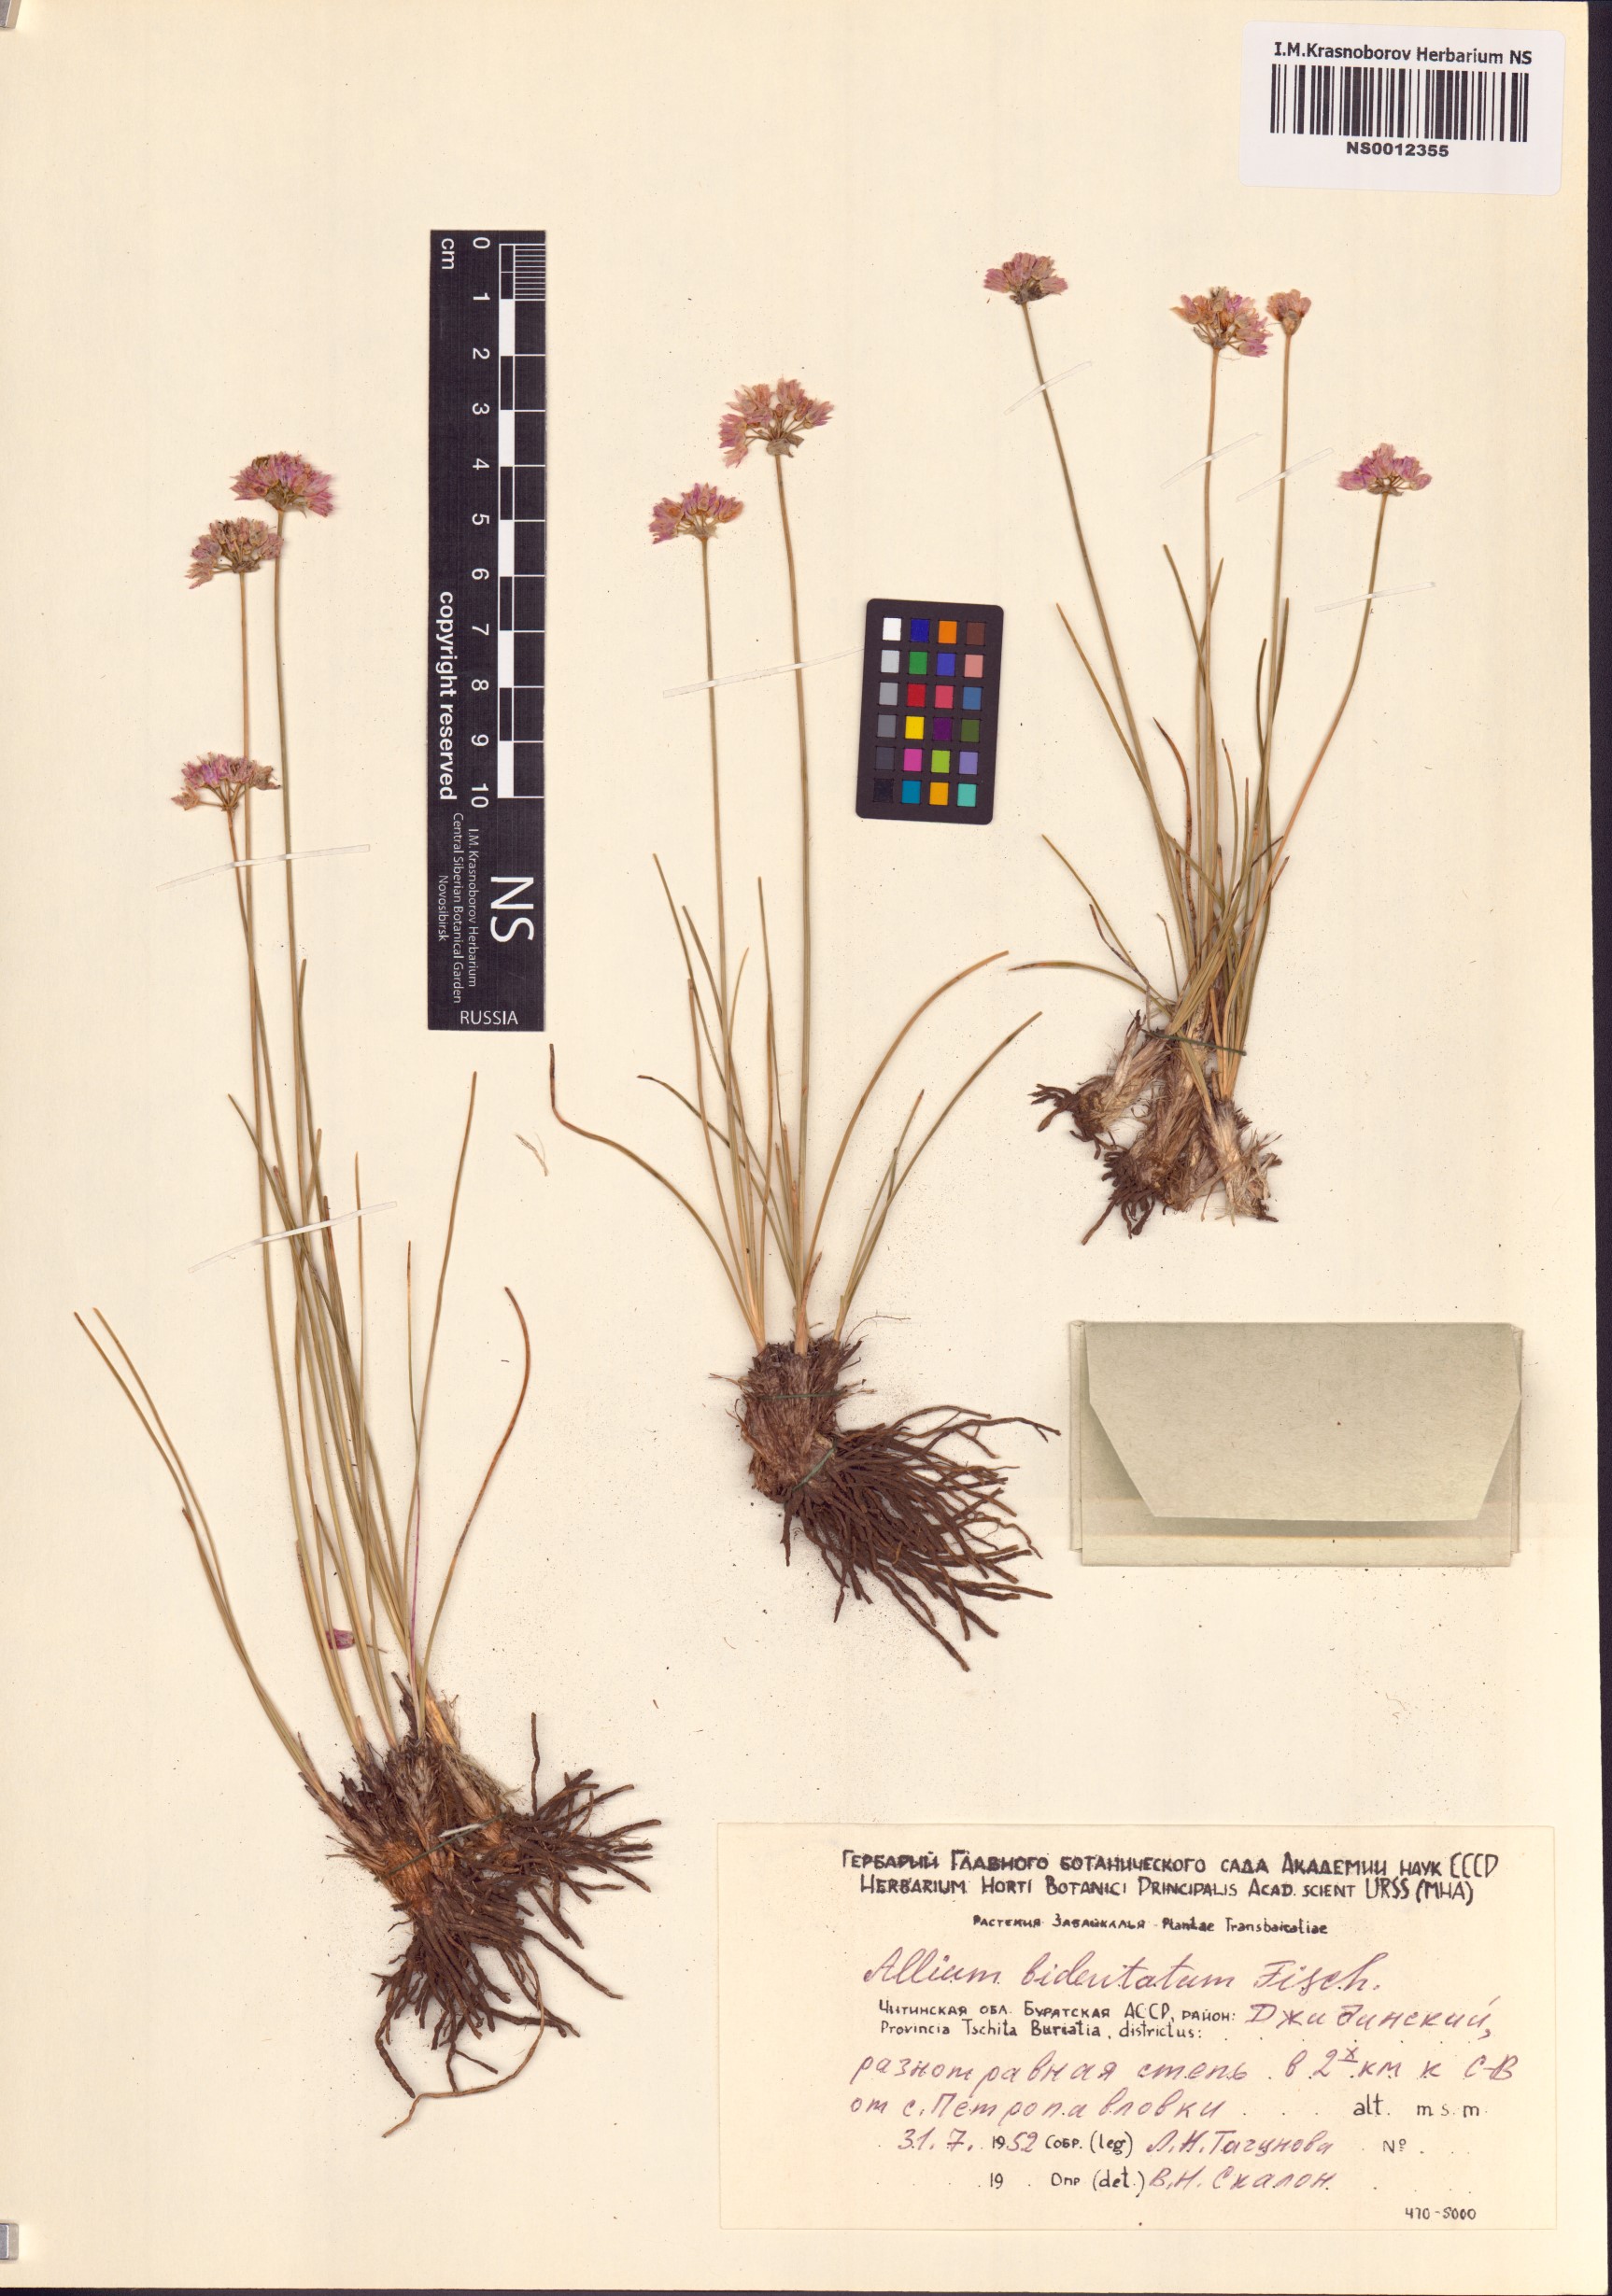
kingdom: Plantae
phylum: Tracheophyta
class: Liliopsida
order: Asparagales
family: Amaryllidaceae
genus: Allium
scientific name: Allium bidentatum
